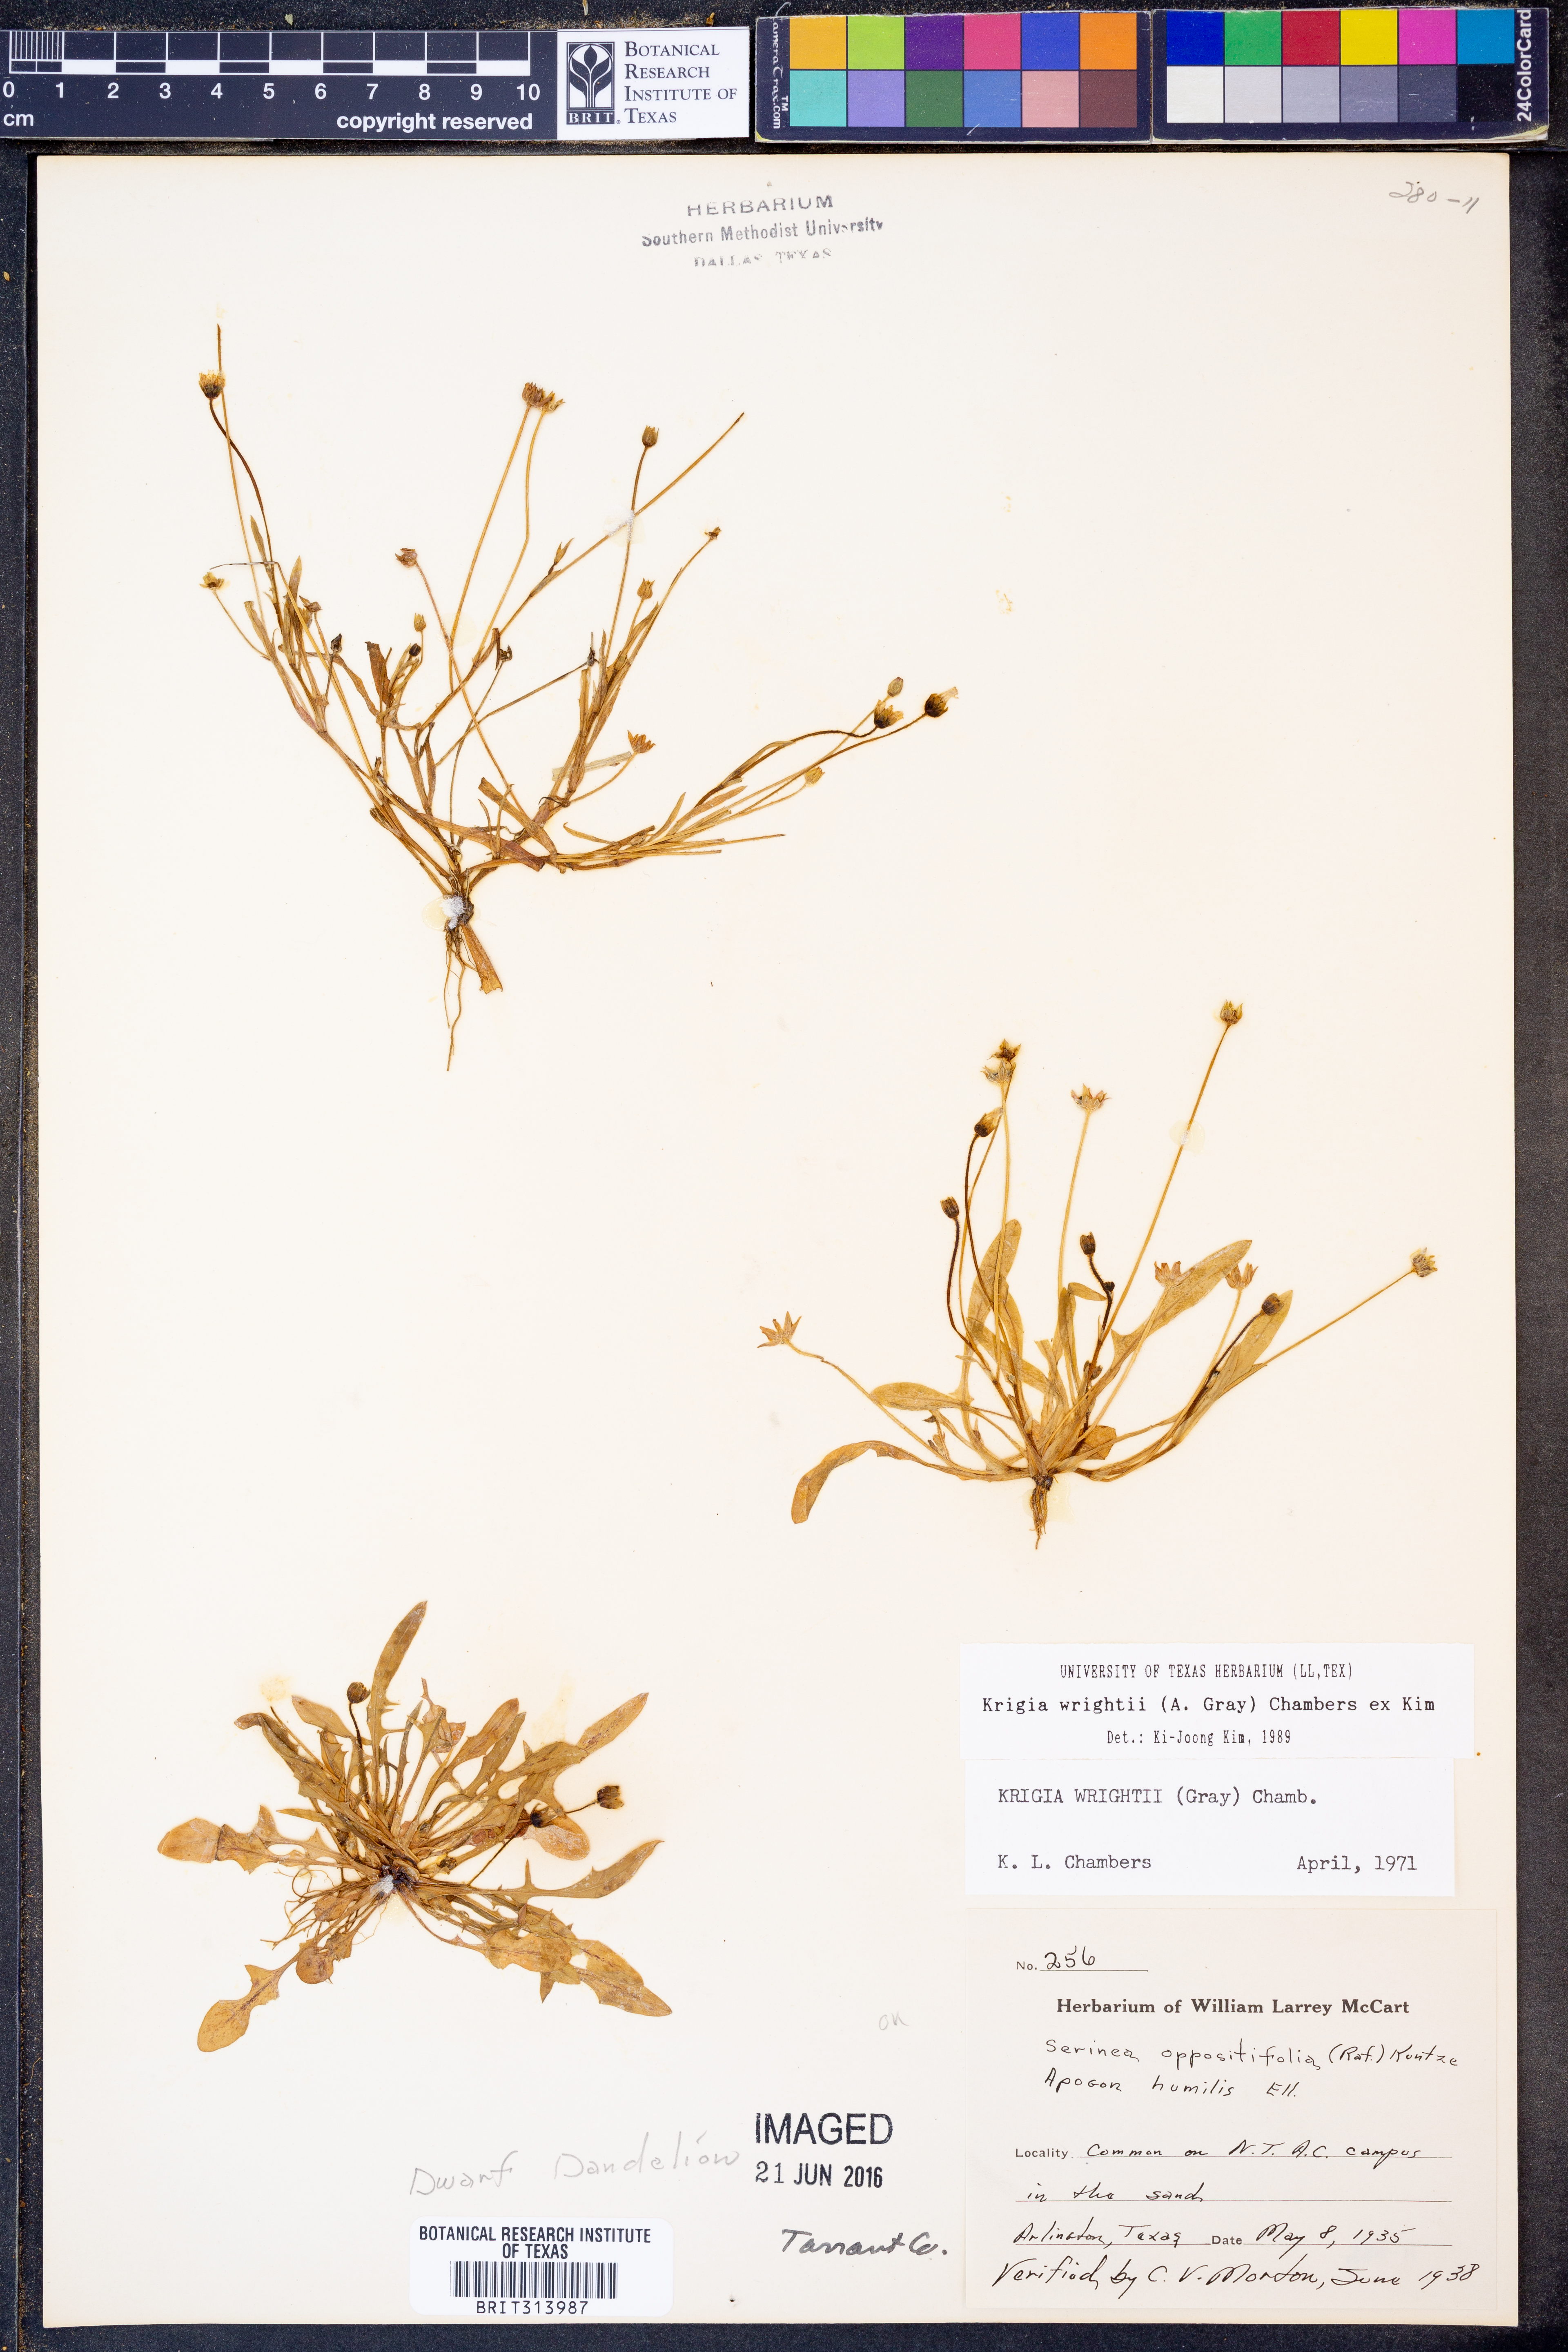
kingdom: Plantae
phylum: Tracheophyta
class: Magnoliopsida
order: Asterales
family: Asteraceae
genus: Krigia
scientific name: Krigia wrightii
